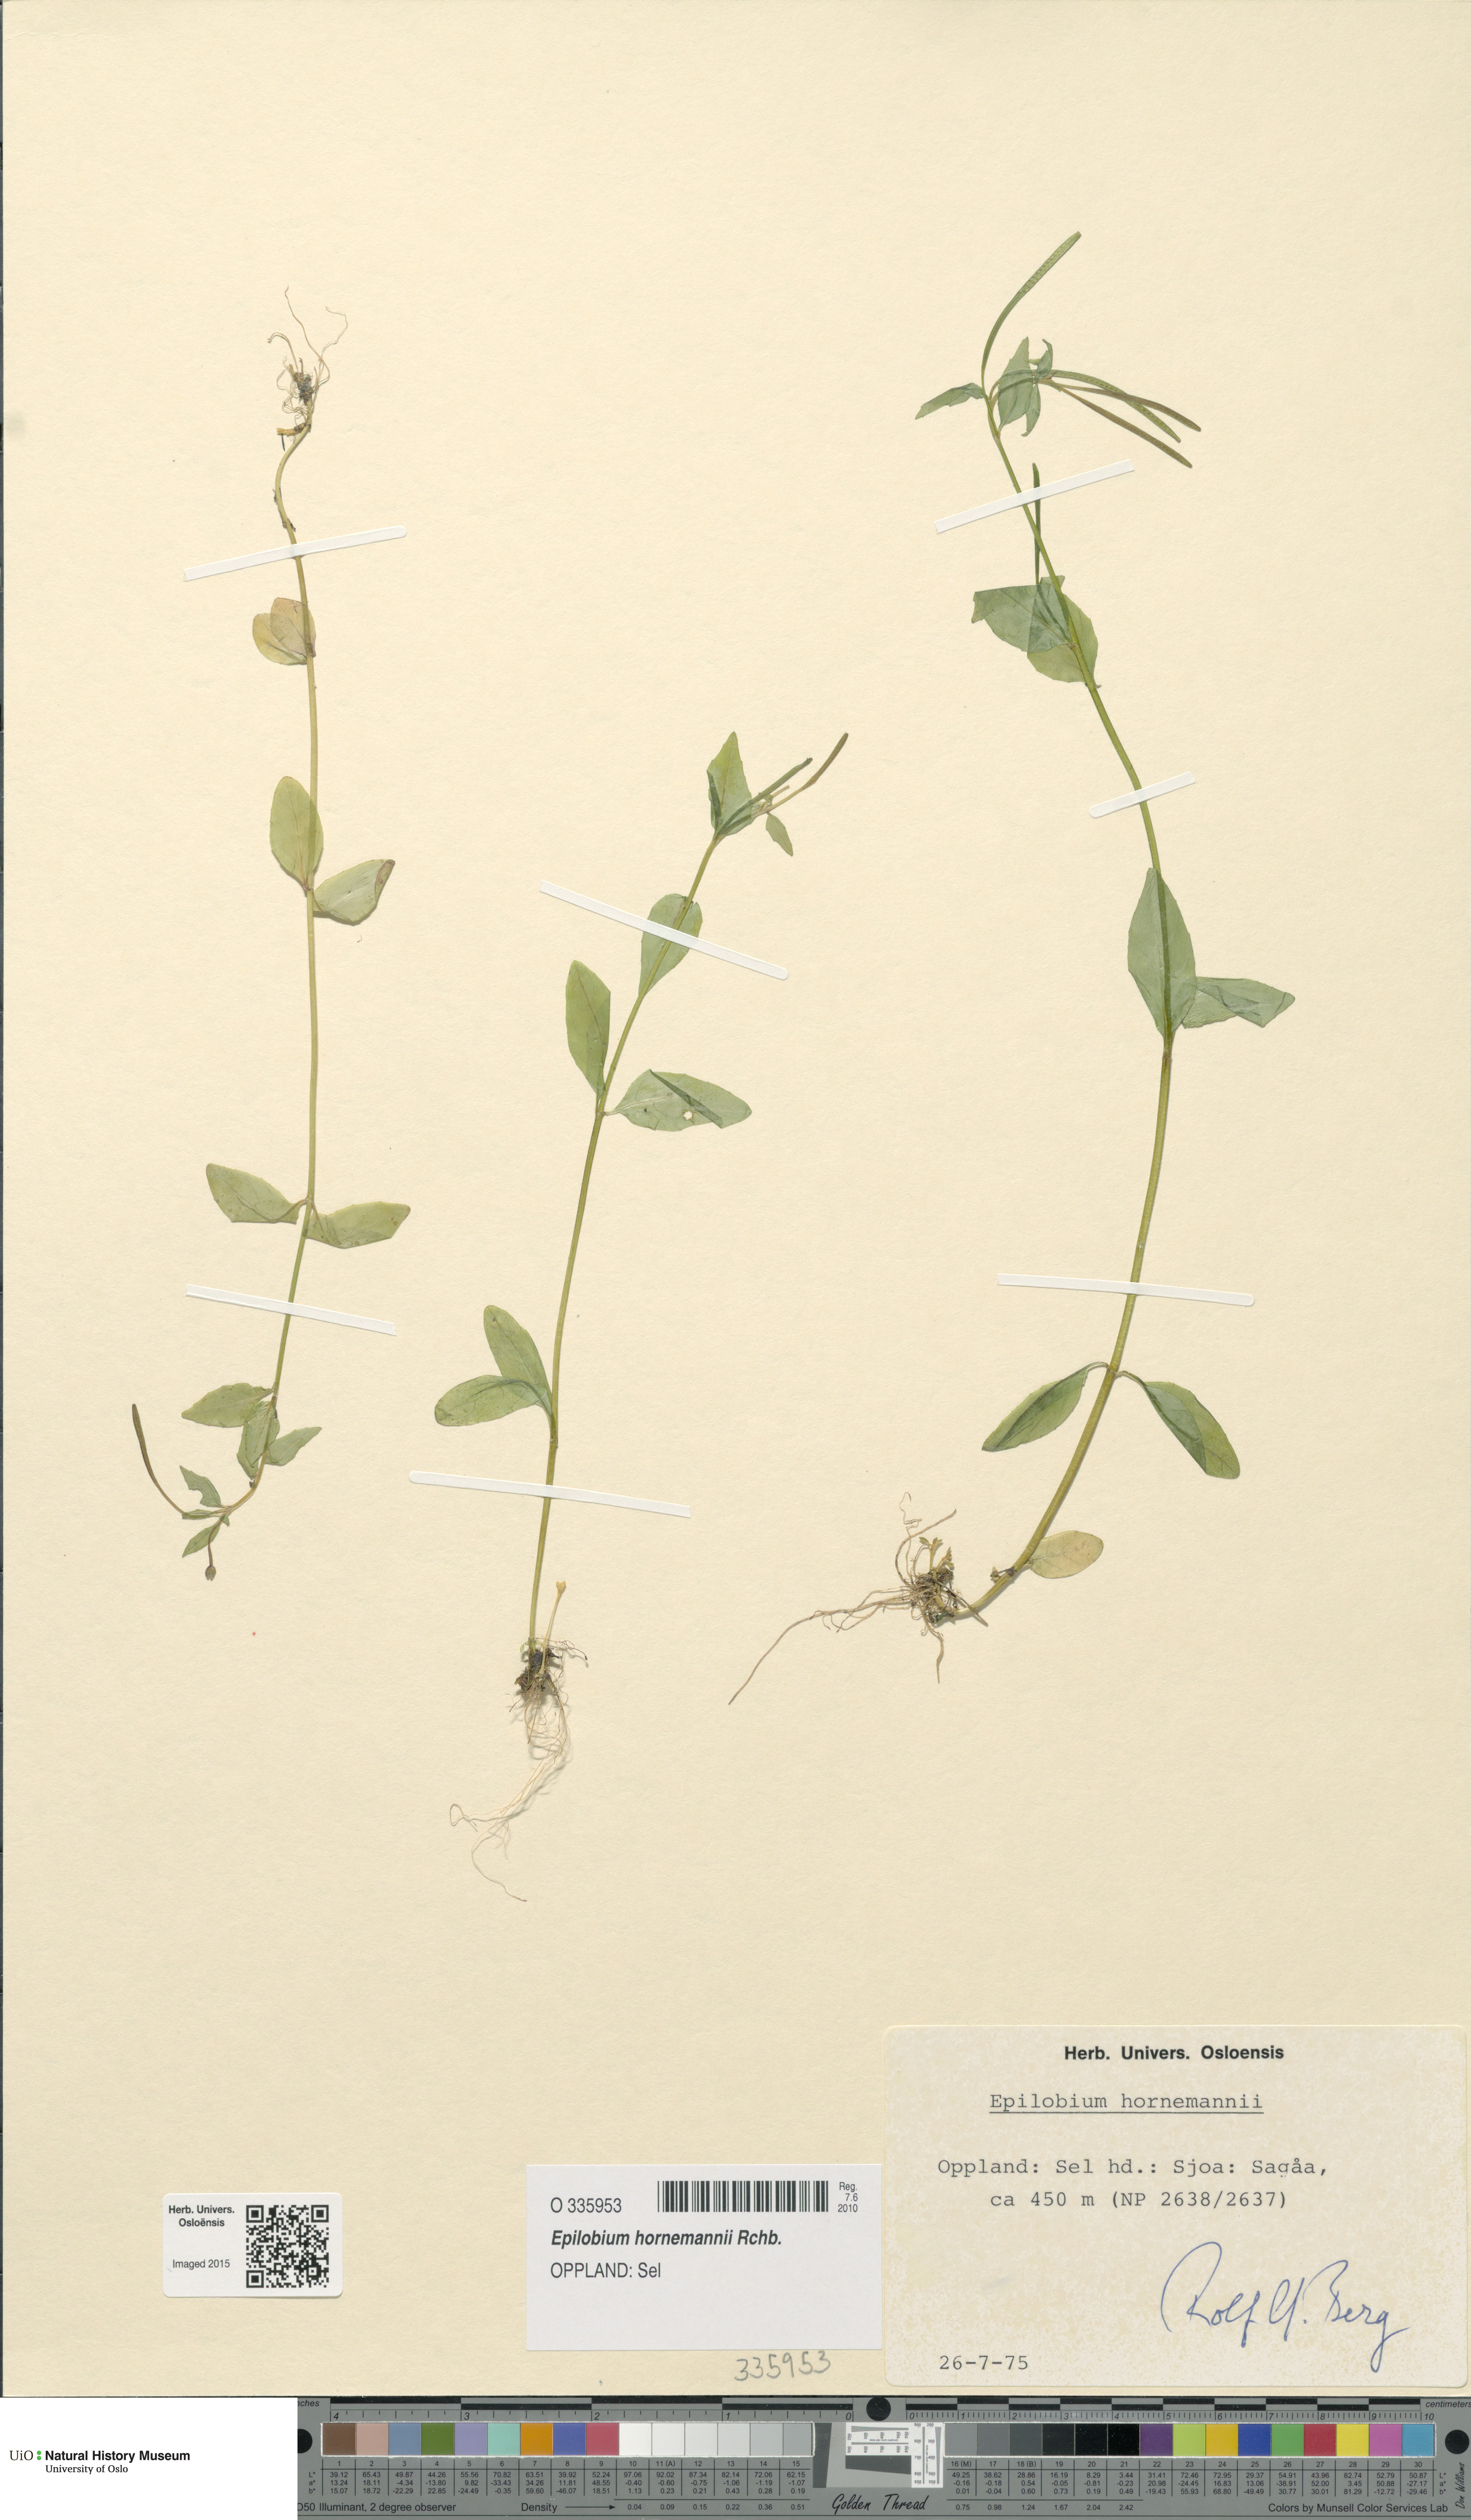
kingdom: Plantae
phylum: Tracheophyta
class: Magnoliopsida
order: Myrtales
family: Onagraceae
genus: Epilobium
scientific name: Epilobium hornemannii
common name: Hornemann's willowherb
